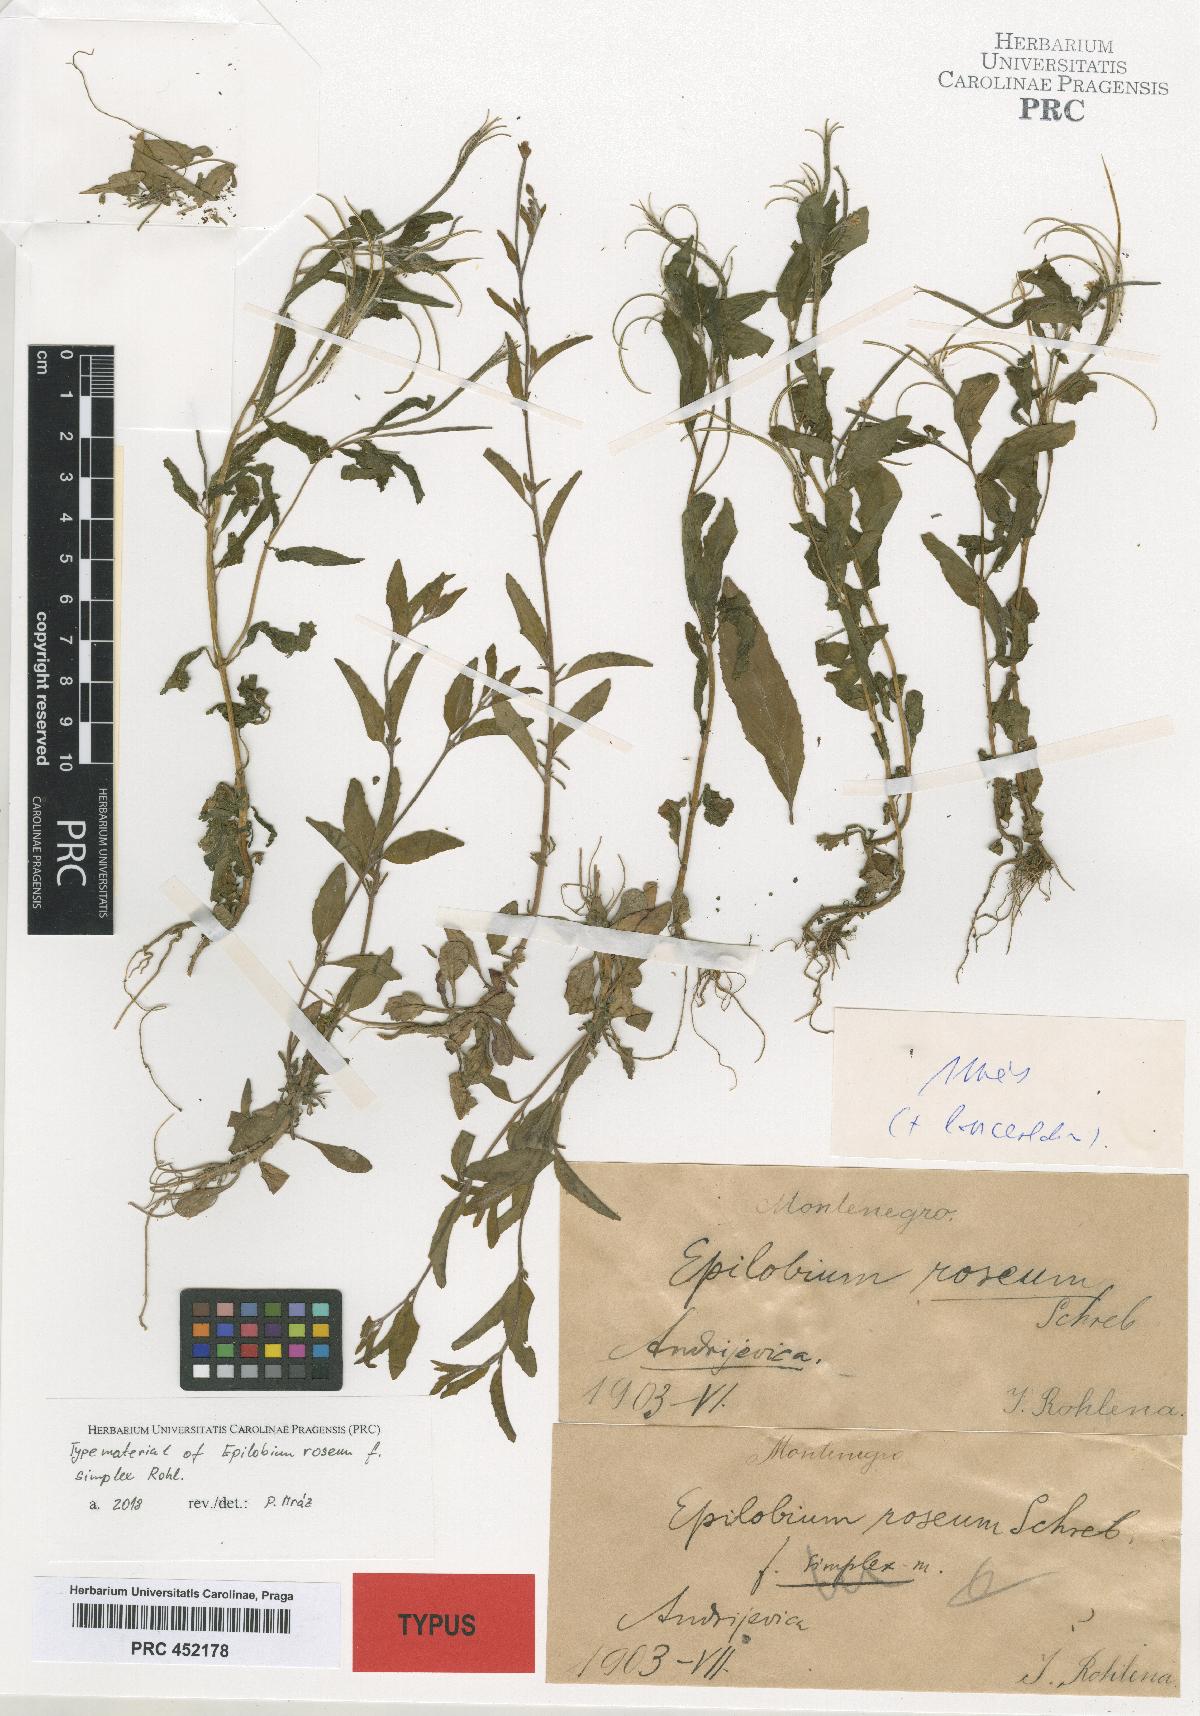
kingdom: Plantae
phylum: Tracheophyta
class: Magnoliopsida
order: Myrtales
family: Onagraceae
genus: Epilobium
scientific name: Epilobium roseum
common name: Pale willowherb
